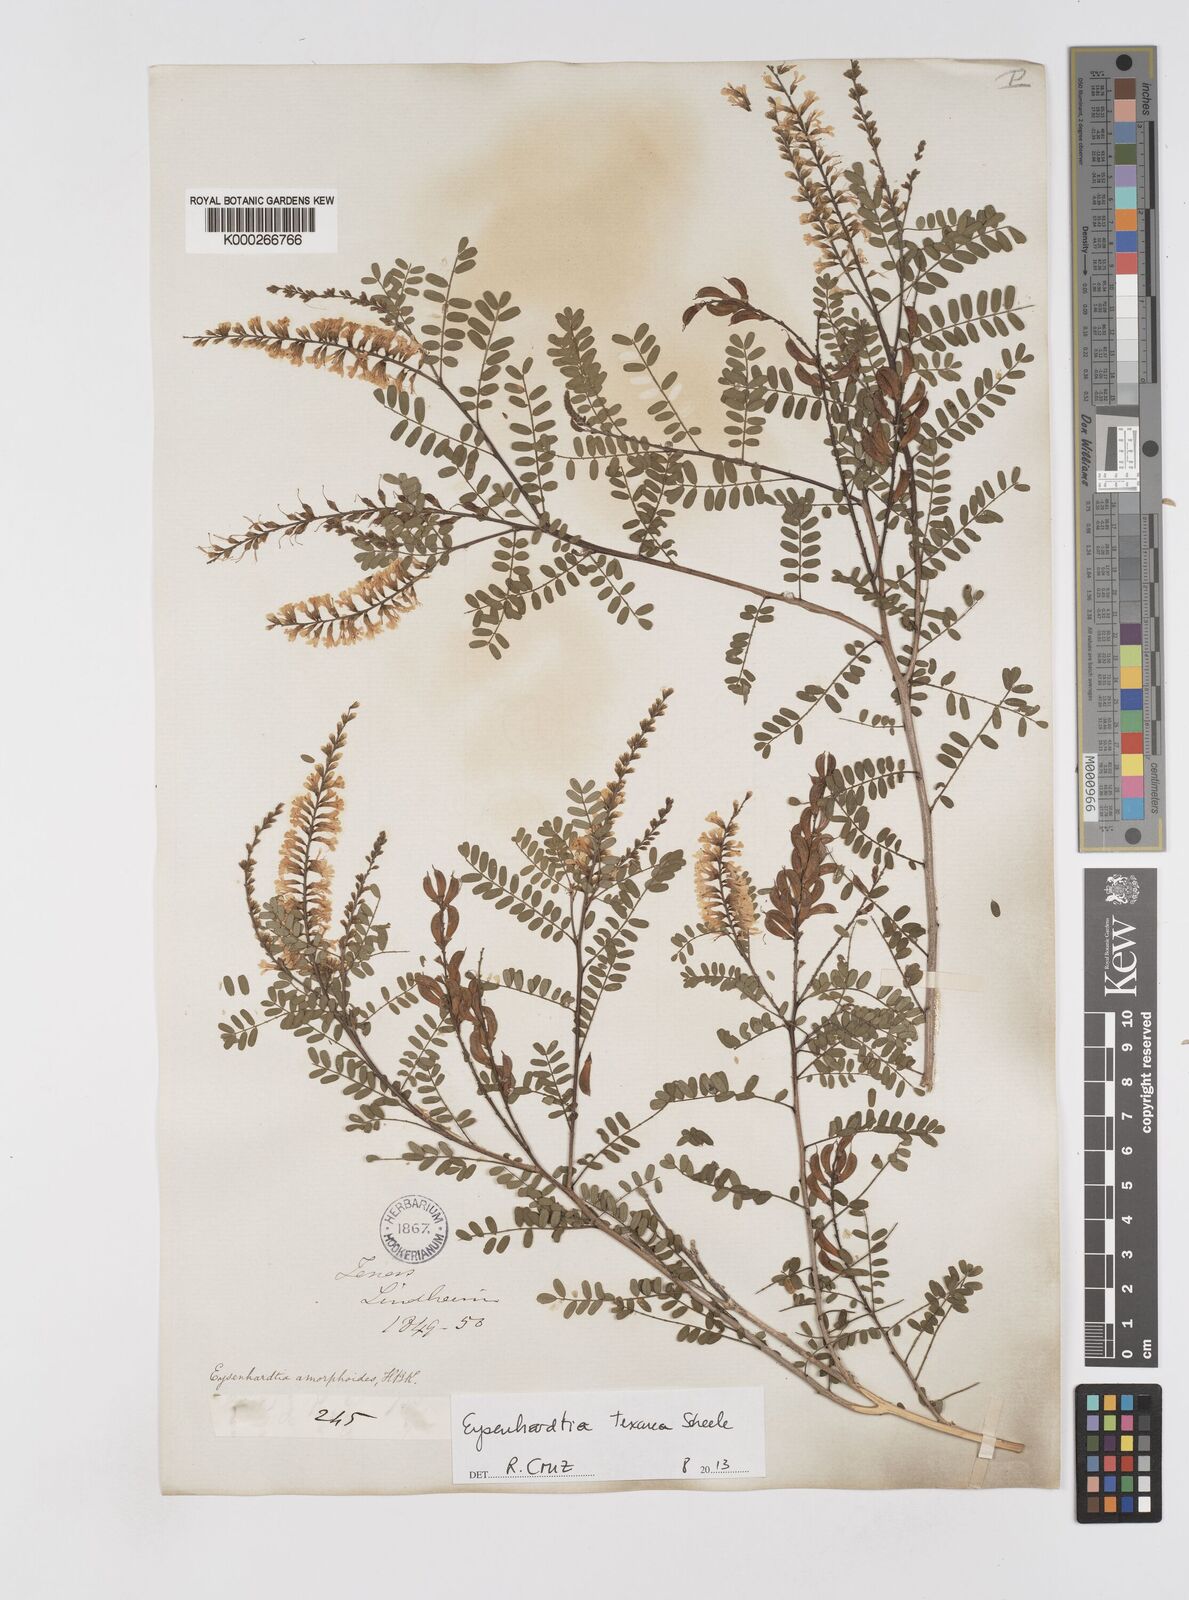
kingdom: Plantae
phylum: Tracheophyta
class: Magnoliopsida
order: Fabales
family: Fabaceae
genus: Eysenhardtia
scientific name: Eysenhardtia texana
